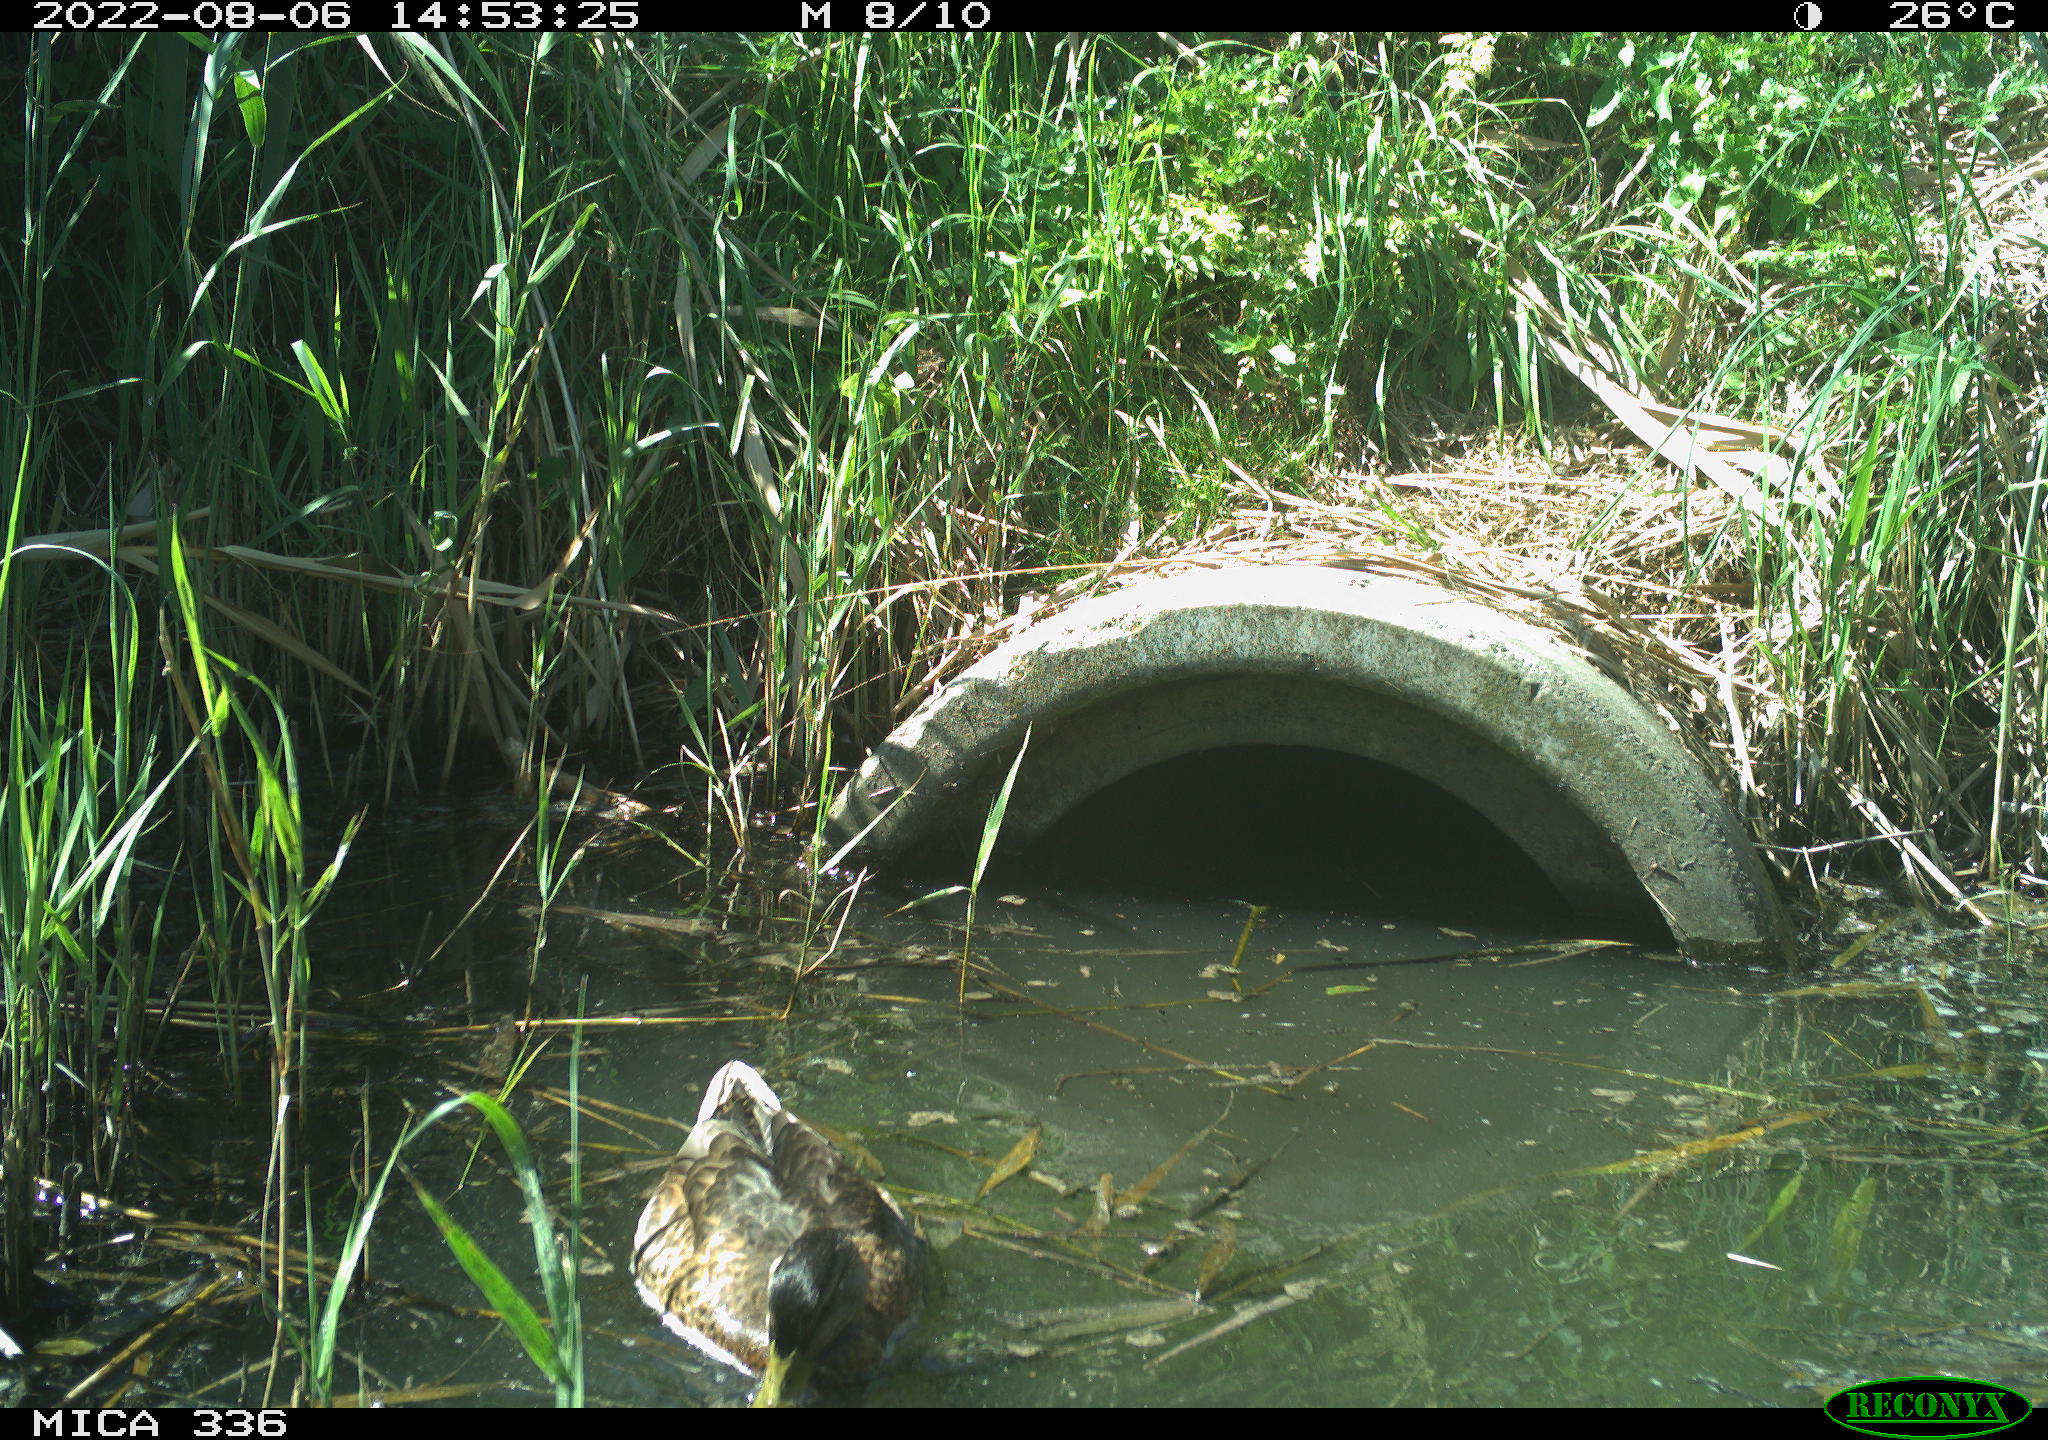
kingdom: Animalia
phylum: Chordata
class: Aves
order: Anseriformes
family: Anatidae
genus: Anas
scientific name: Anas platyrhynchos
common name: Mallard
